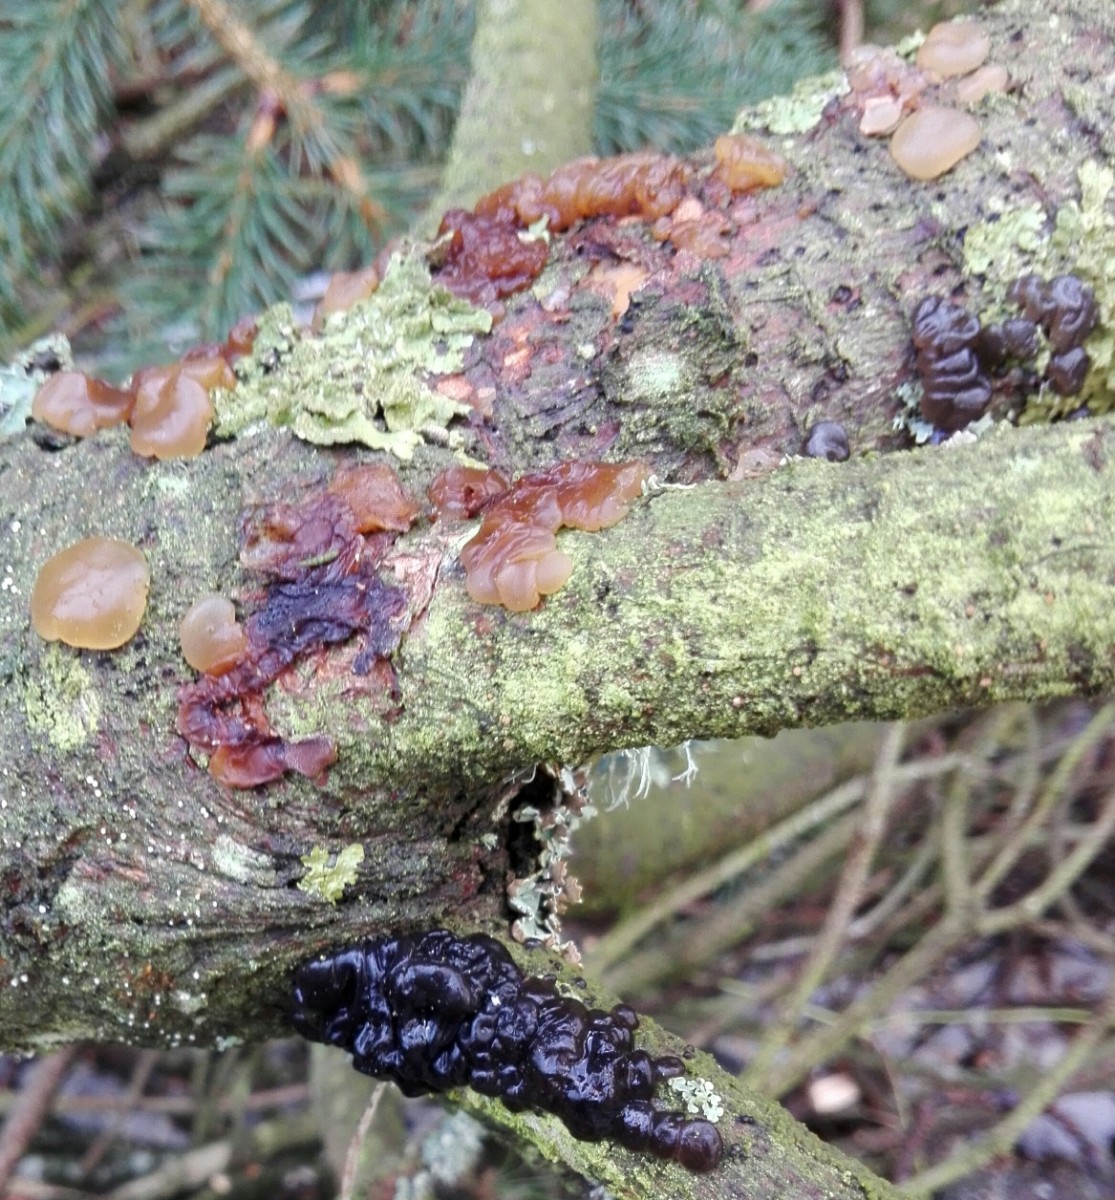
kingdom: Fungi
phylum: Basidiomycota
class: Agaricomycetes
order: Auriculariales
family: Auriculariaceae
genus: Exidia
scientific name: Exidia saccharina
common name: kandis-bævretop
